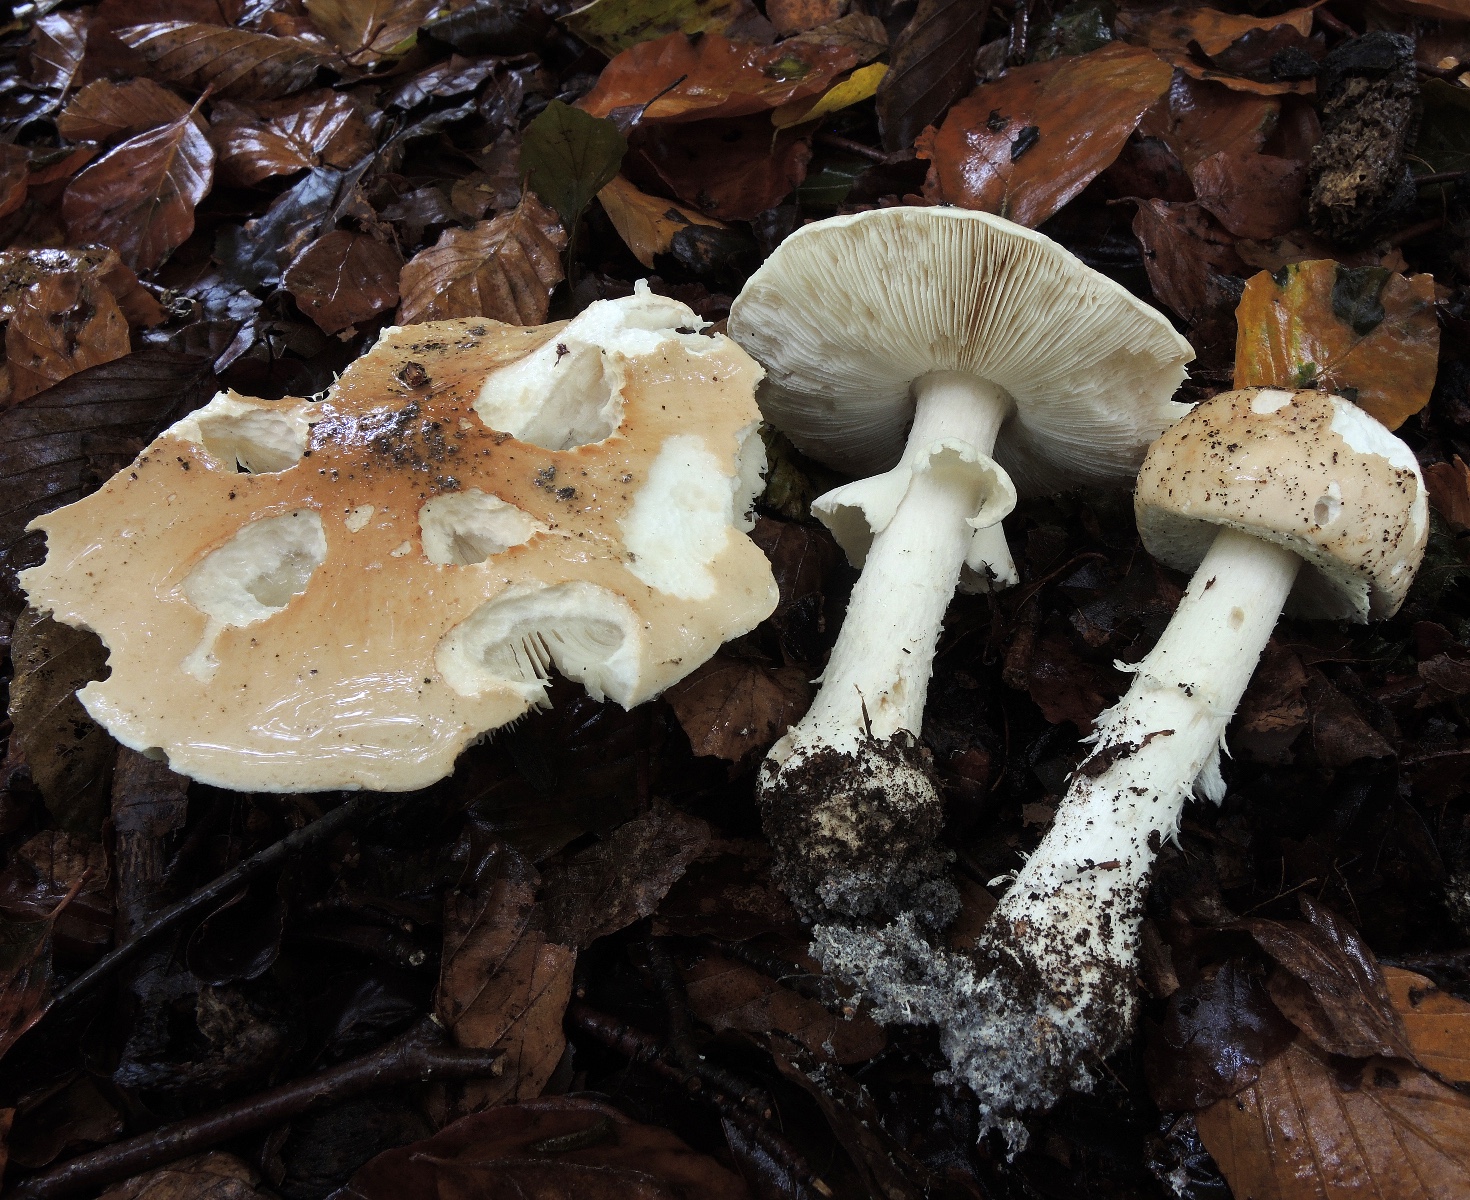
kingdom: Fungi
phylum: Basidiomycota
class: Agaricomycetes
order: Agaricales
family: Amanitaceae
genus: Limacellopsis
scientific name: Limacellopsis guttata
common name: tåre-snekkehat
